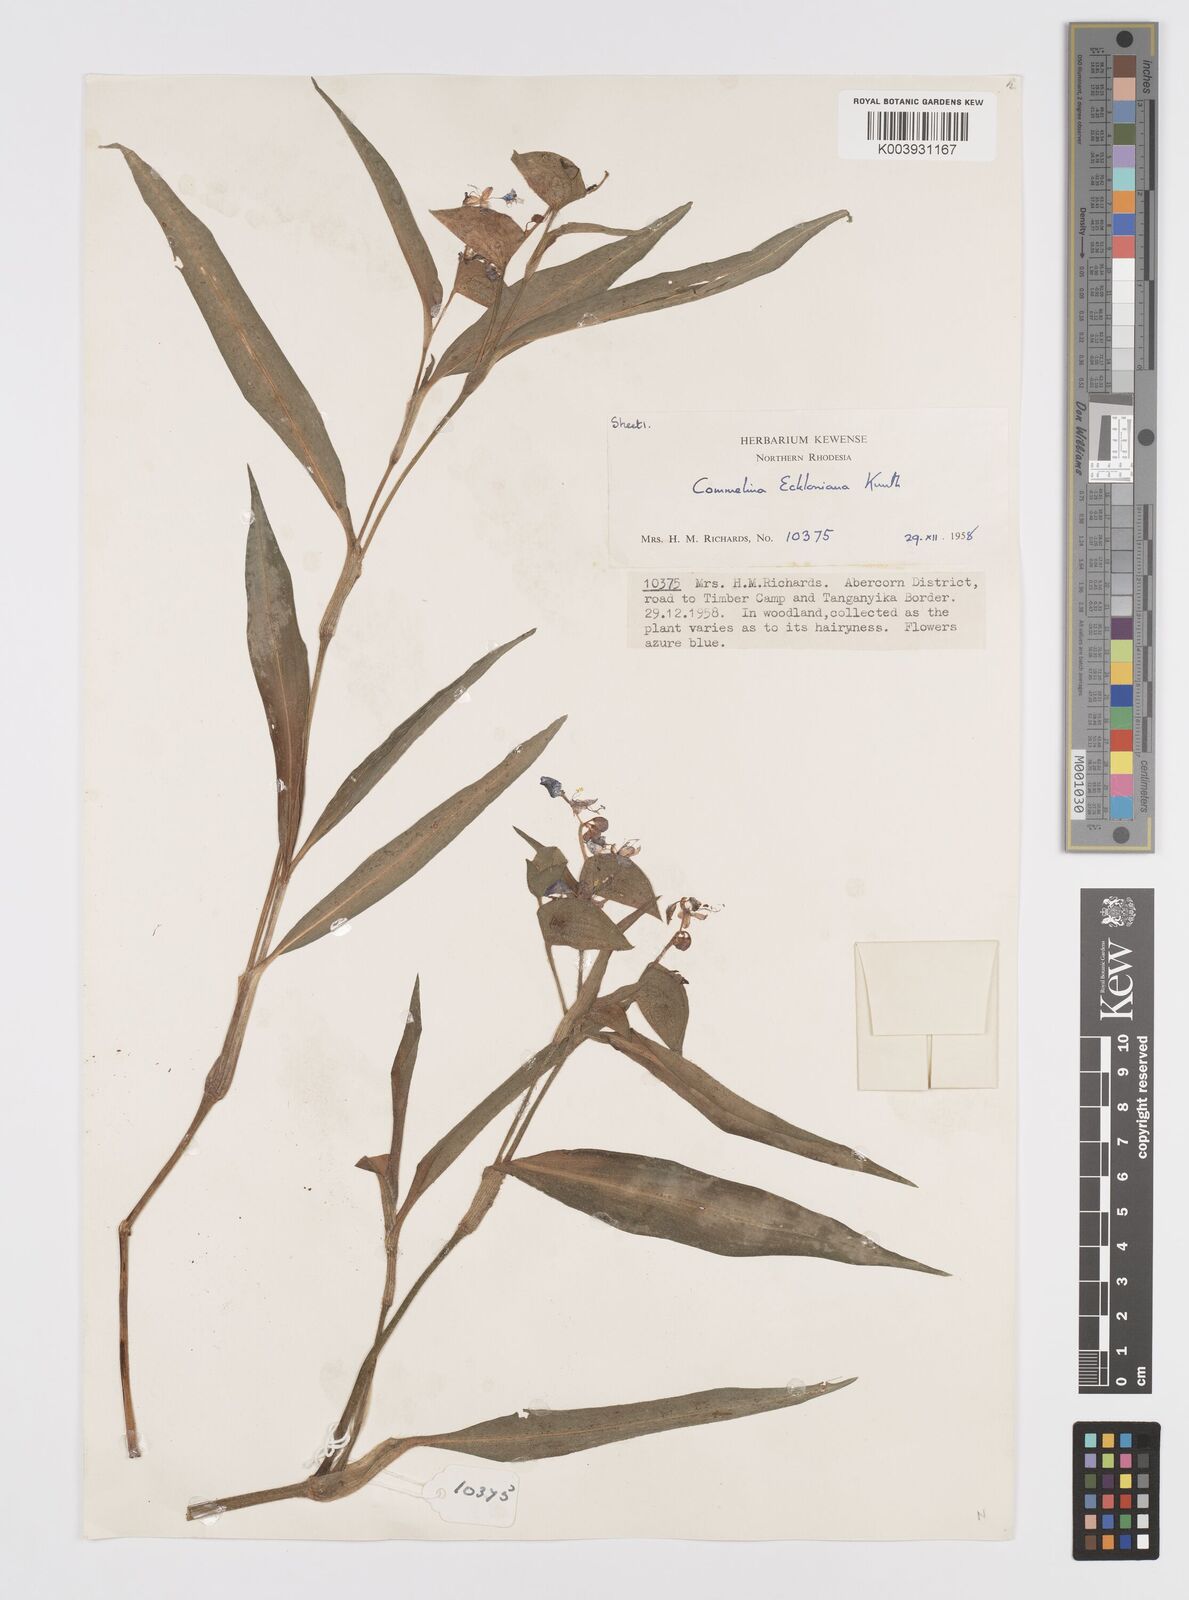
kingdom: Plantae
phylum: Tracheophyta
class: Liliopsida
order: Commelinales
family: Commelinaceae
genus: Commelina
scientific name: Commelina eckloniana
